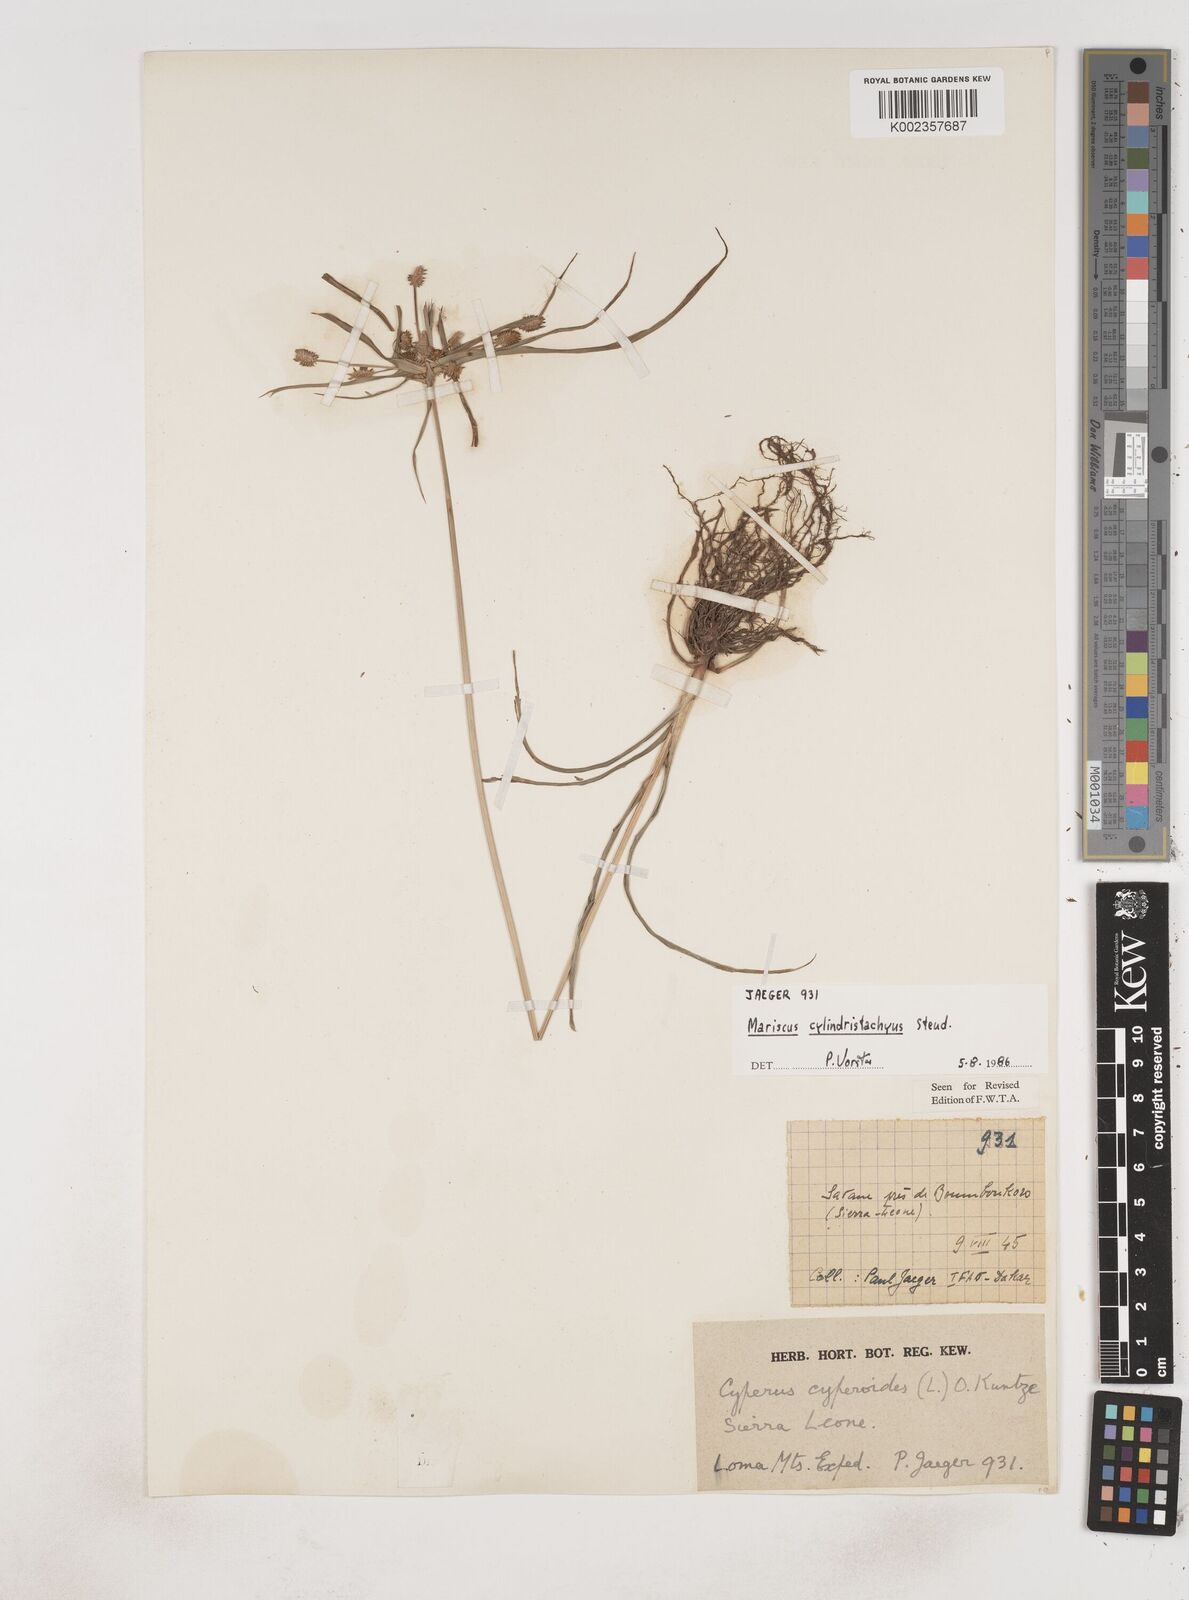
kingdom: Plantae
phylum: Tracheophyta
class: Liliopsida
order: Poales
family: Cyperaceae
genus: Cyperus
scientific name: Cyperus sublimis
